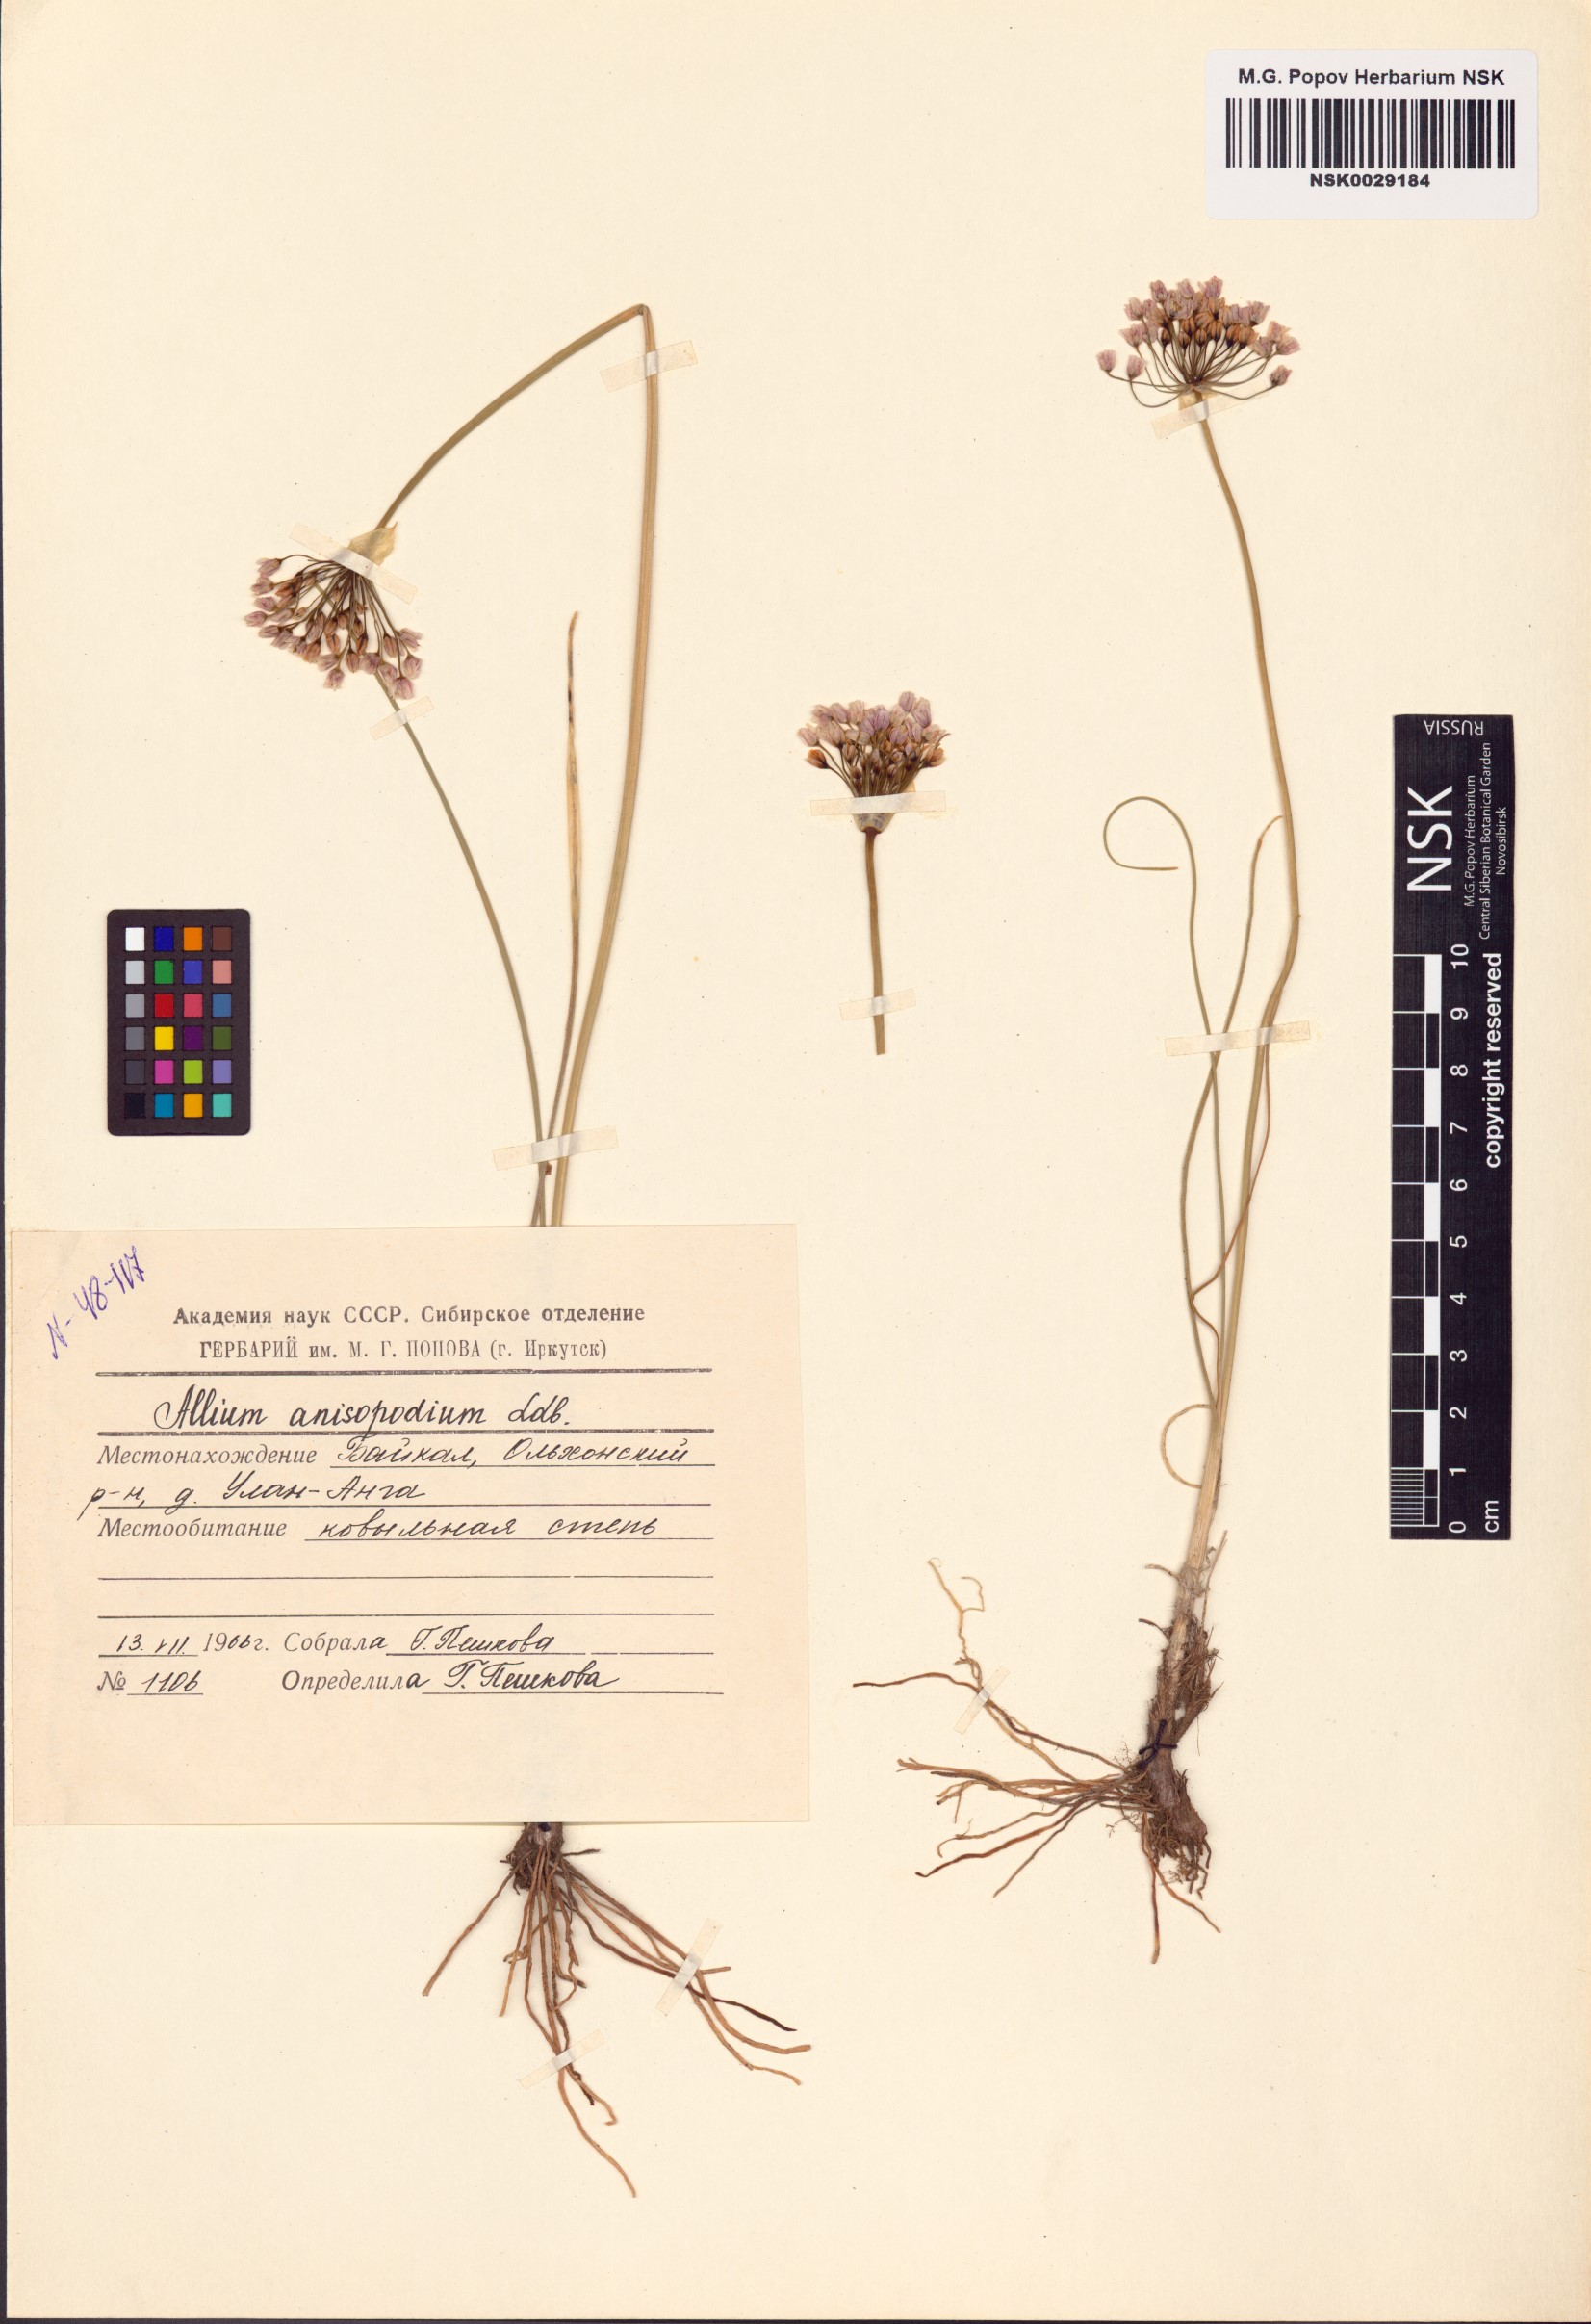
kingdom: Plantae
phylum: Tracheophyta
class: Liliopsida
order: Asparagales
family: Amaryllidaceae
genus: Allium
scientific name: Allium anisopodium
